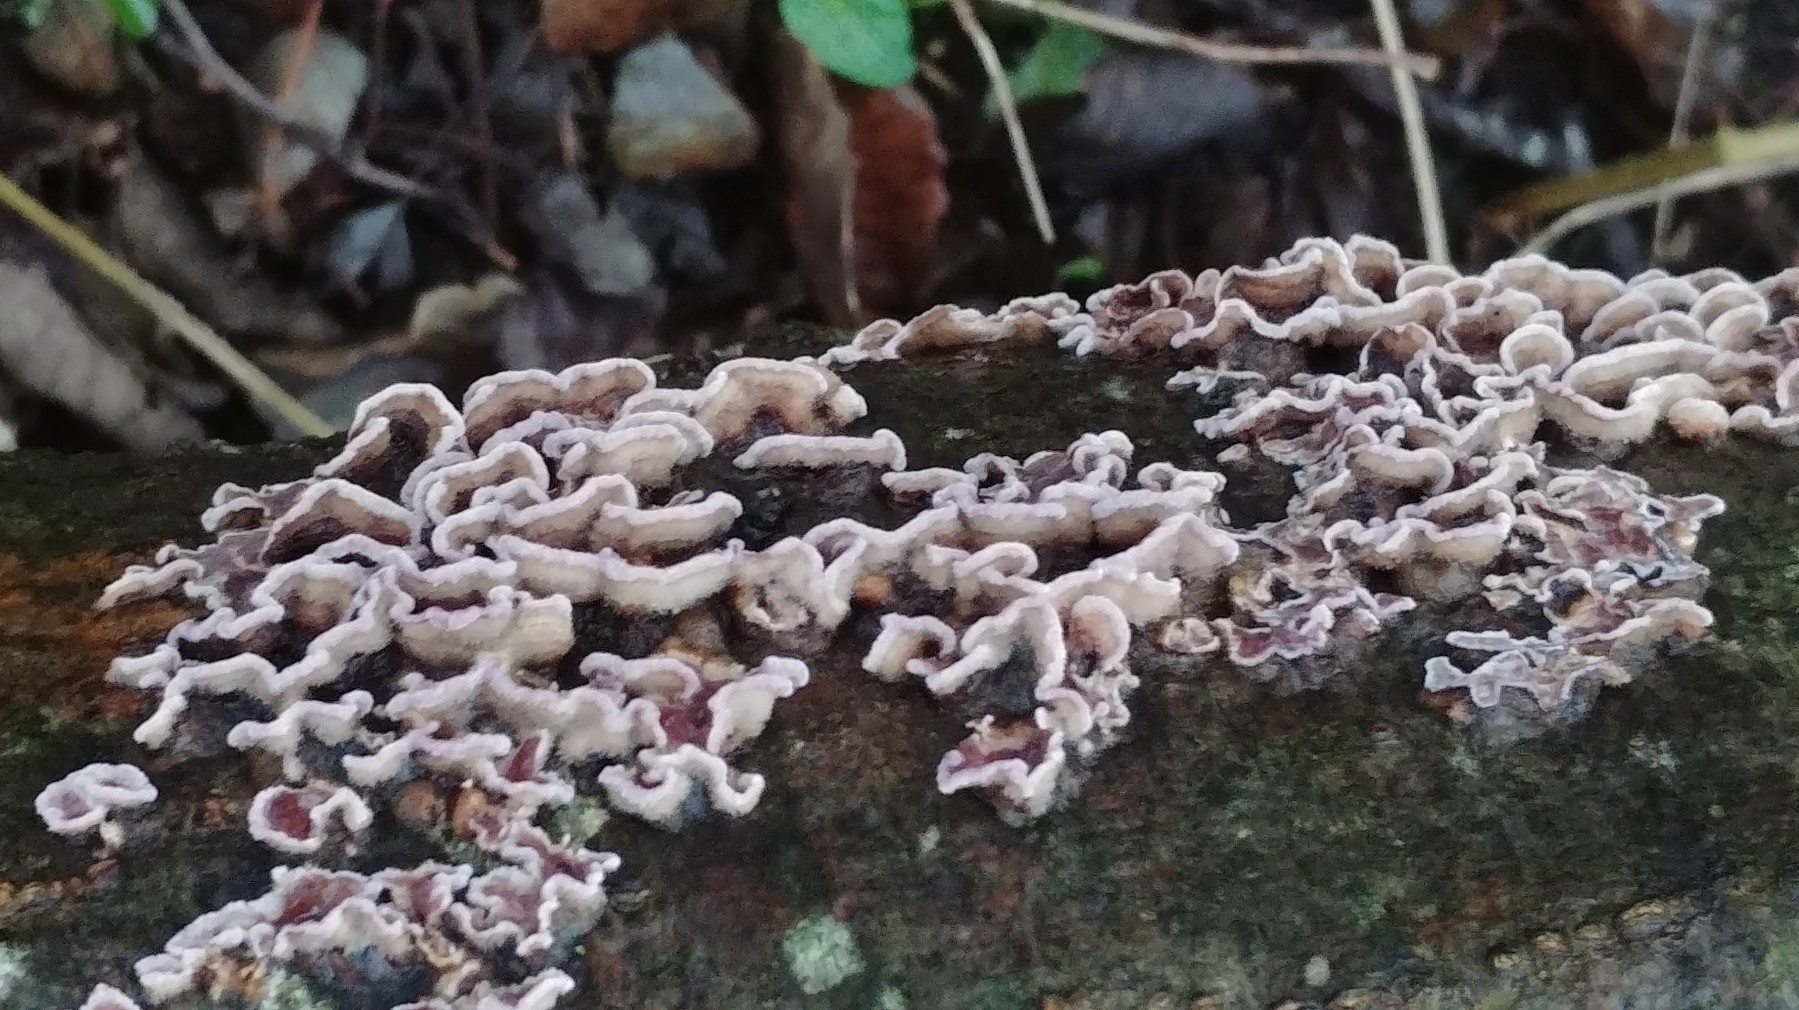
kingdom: Fungi
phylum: Basidiomycota
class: Agaricomycetes
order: Agaricales
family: Cyphellaceae
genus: Chondrostereum
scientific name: Chondrostereum purpureum
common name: purpurlædersvamp
